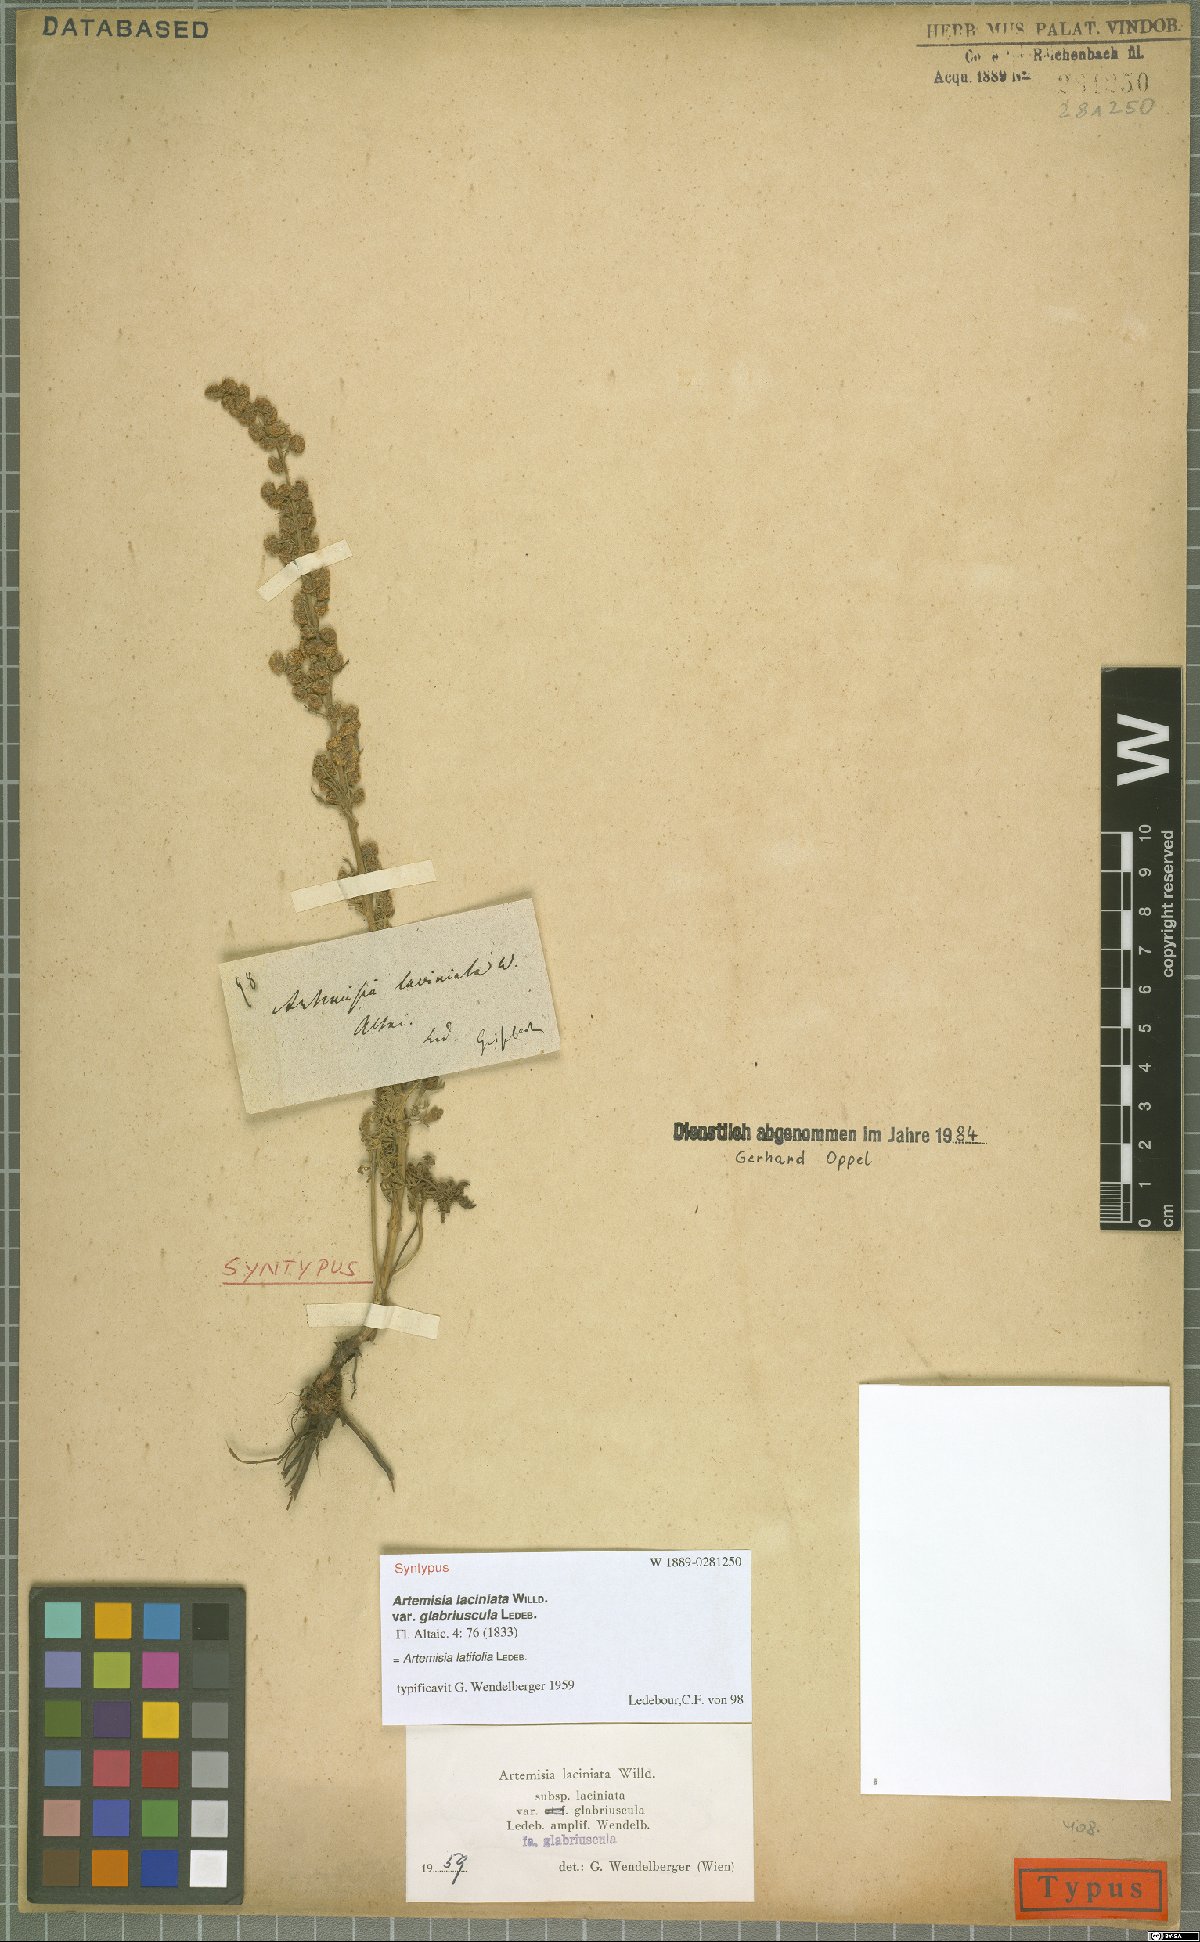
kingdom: Plantae
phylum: Tracheophyta
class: Magnoliopsida
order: Asterales
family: Asteraceae
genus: Artemisia
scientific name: Artemisia latifolia
